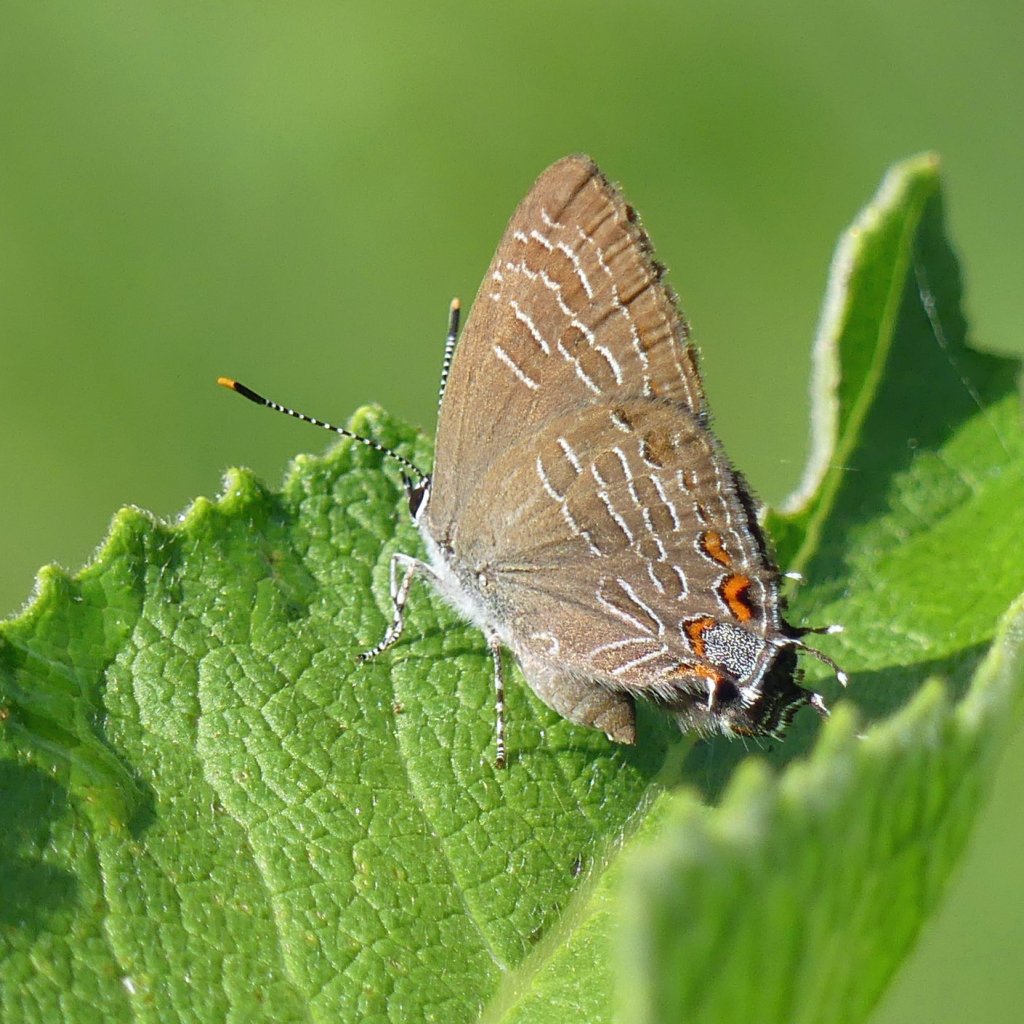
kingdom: Animalia
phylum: Arthropoda
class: Insecta
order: Lepidoptera
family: Lycaenidae
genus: Satyrium
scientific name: Satyrium liparops
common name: Striped Hairstreak
